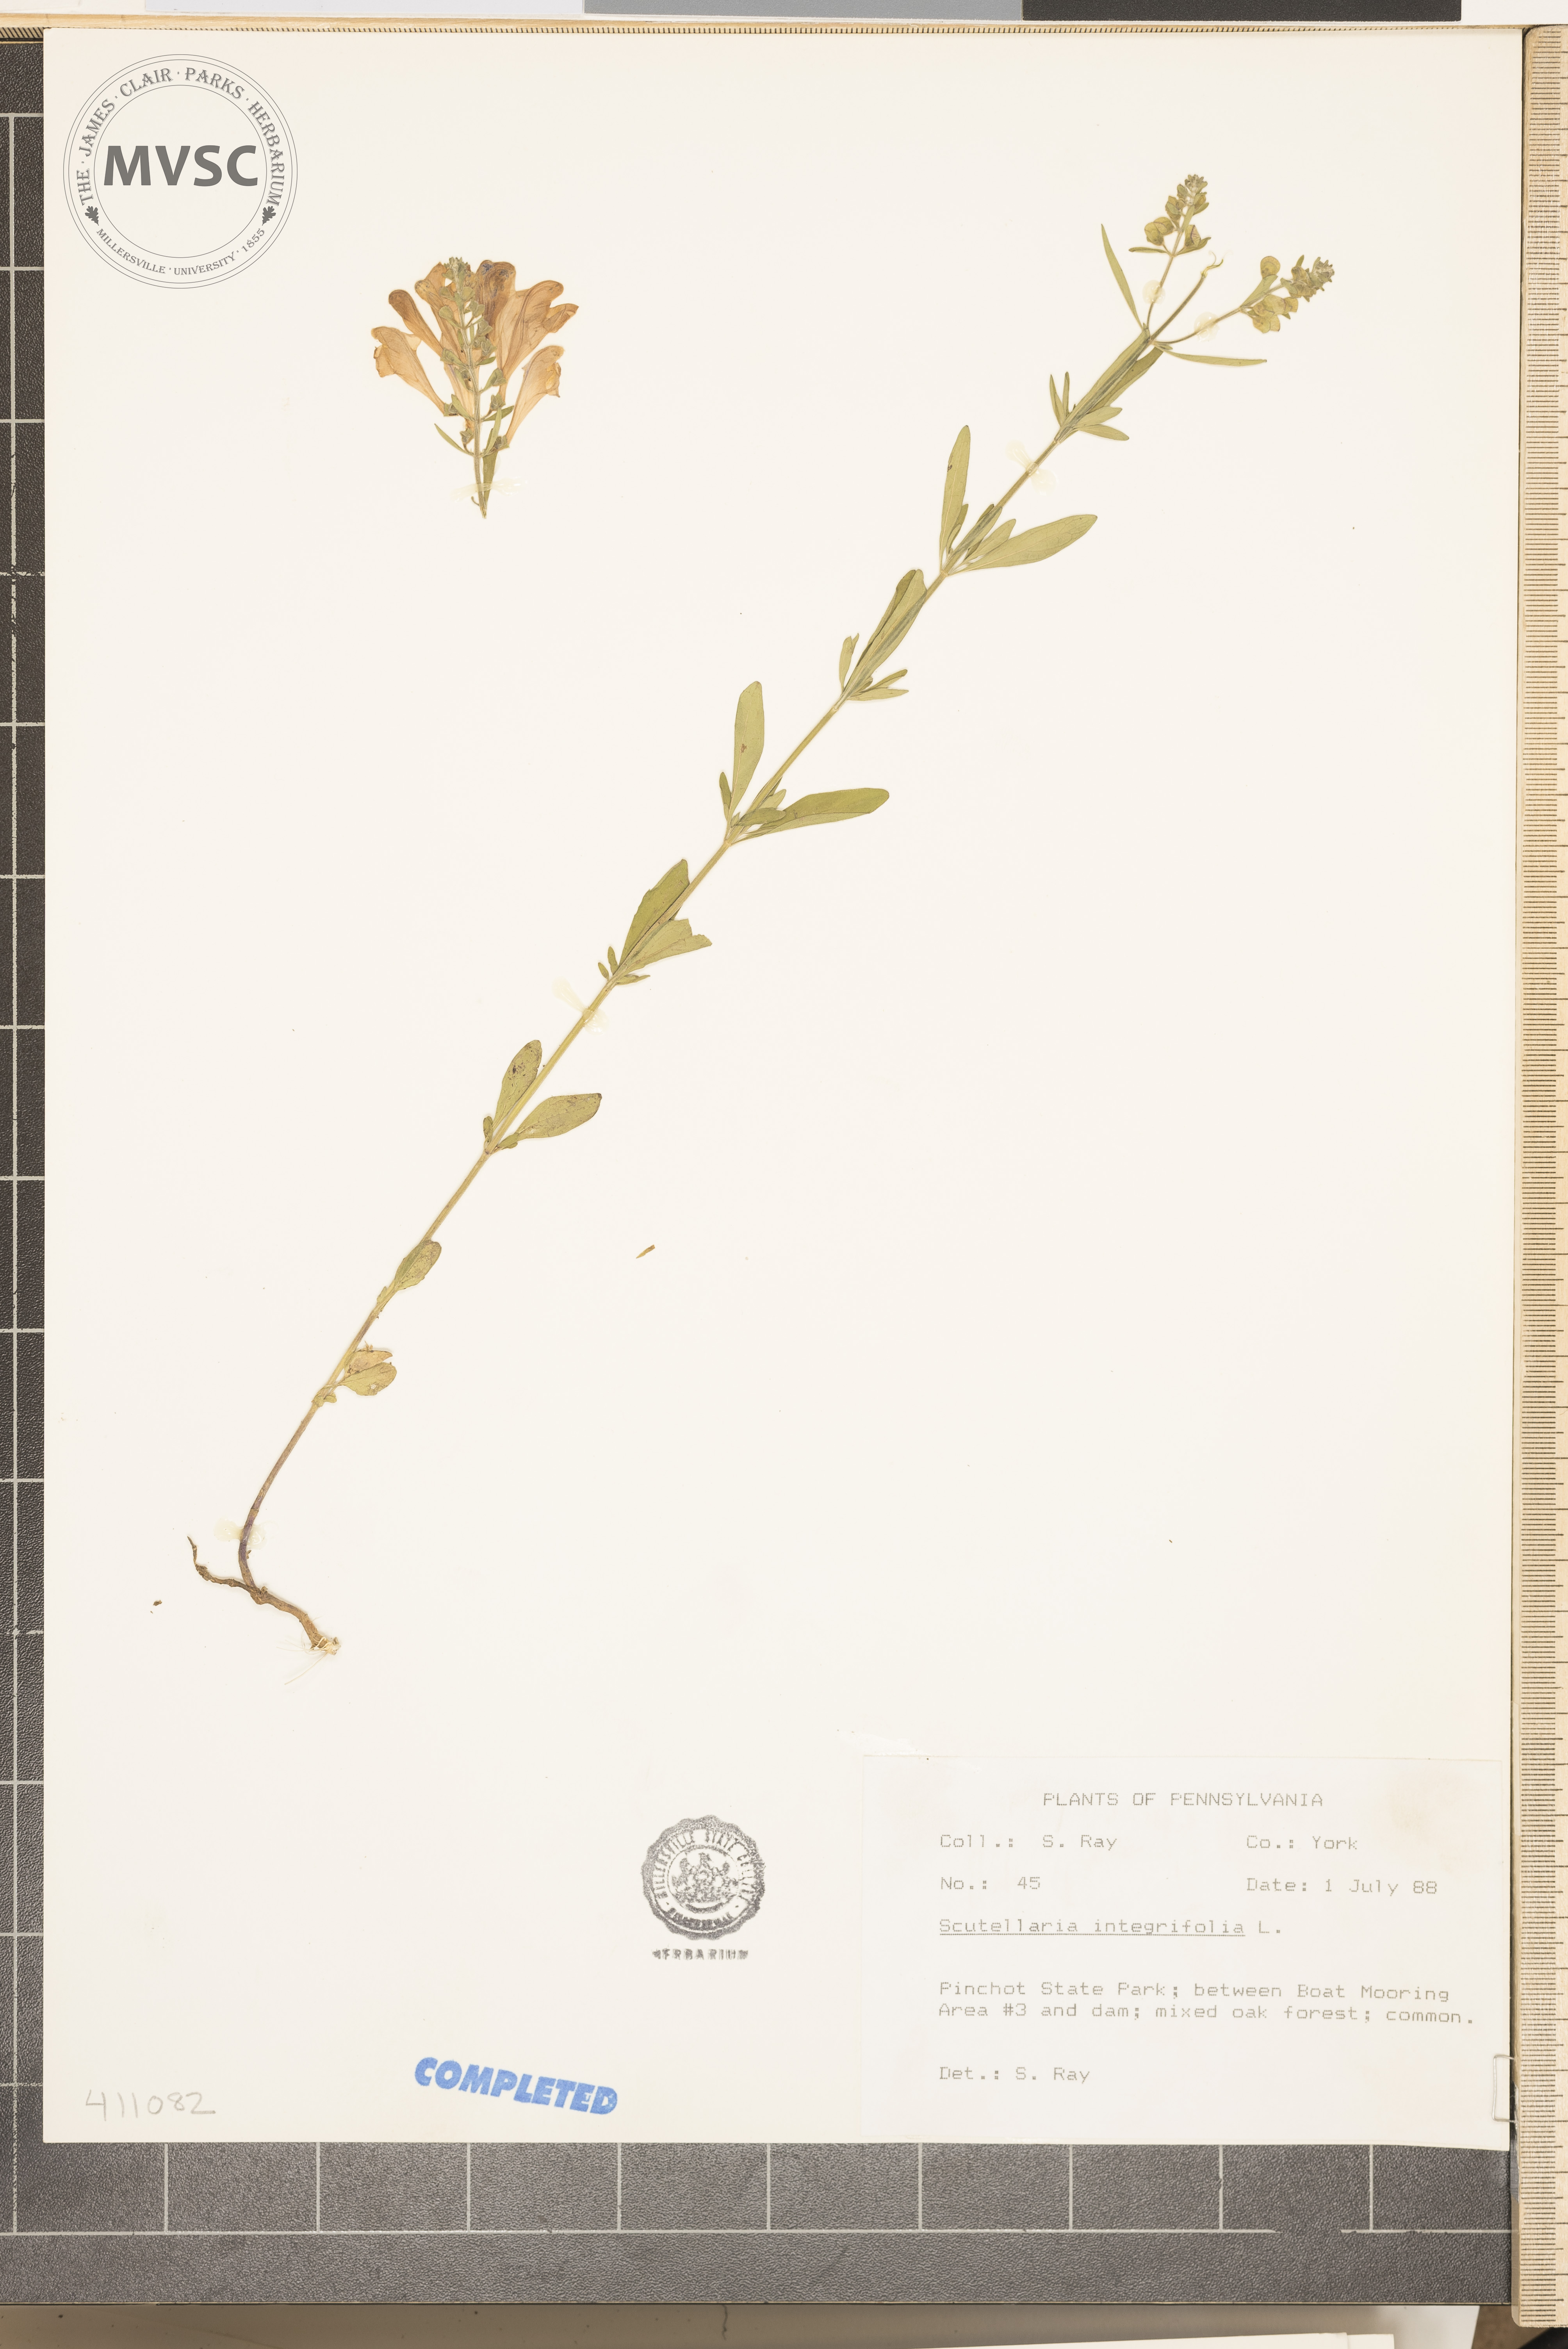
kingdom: Plantae
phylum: Tracheophyta
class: Magnoliopsida
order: Lamiales
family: Lamiaceae
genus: Scutellaria
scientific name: Scutellaria integrifolia
